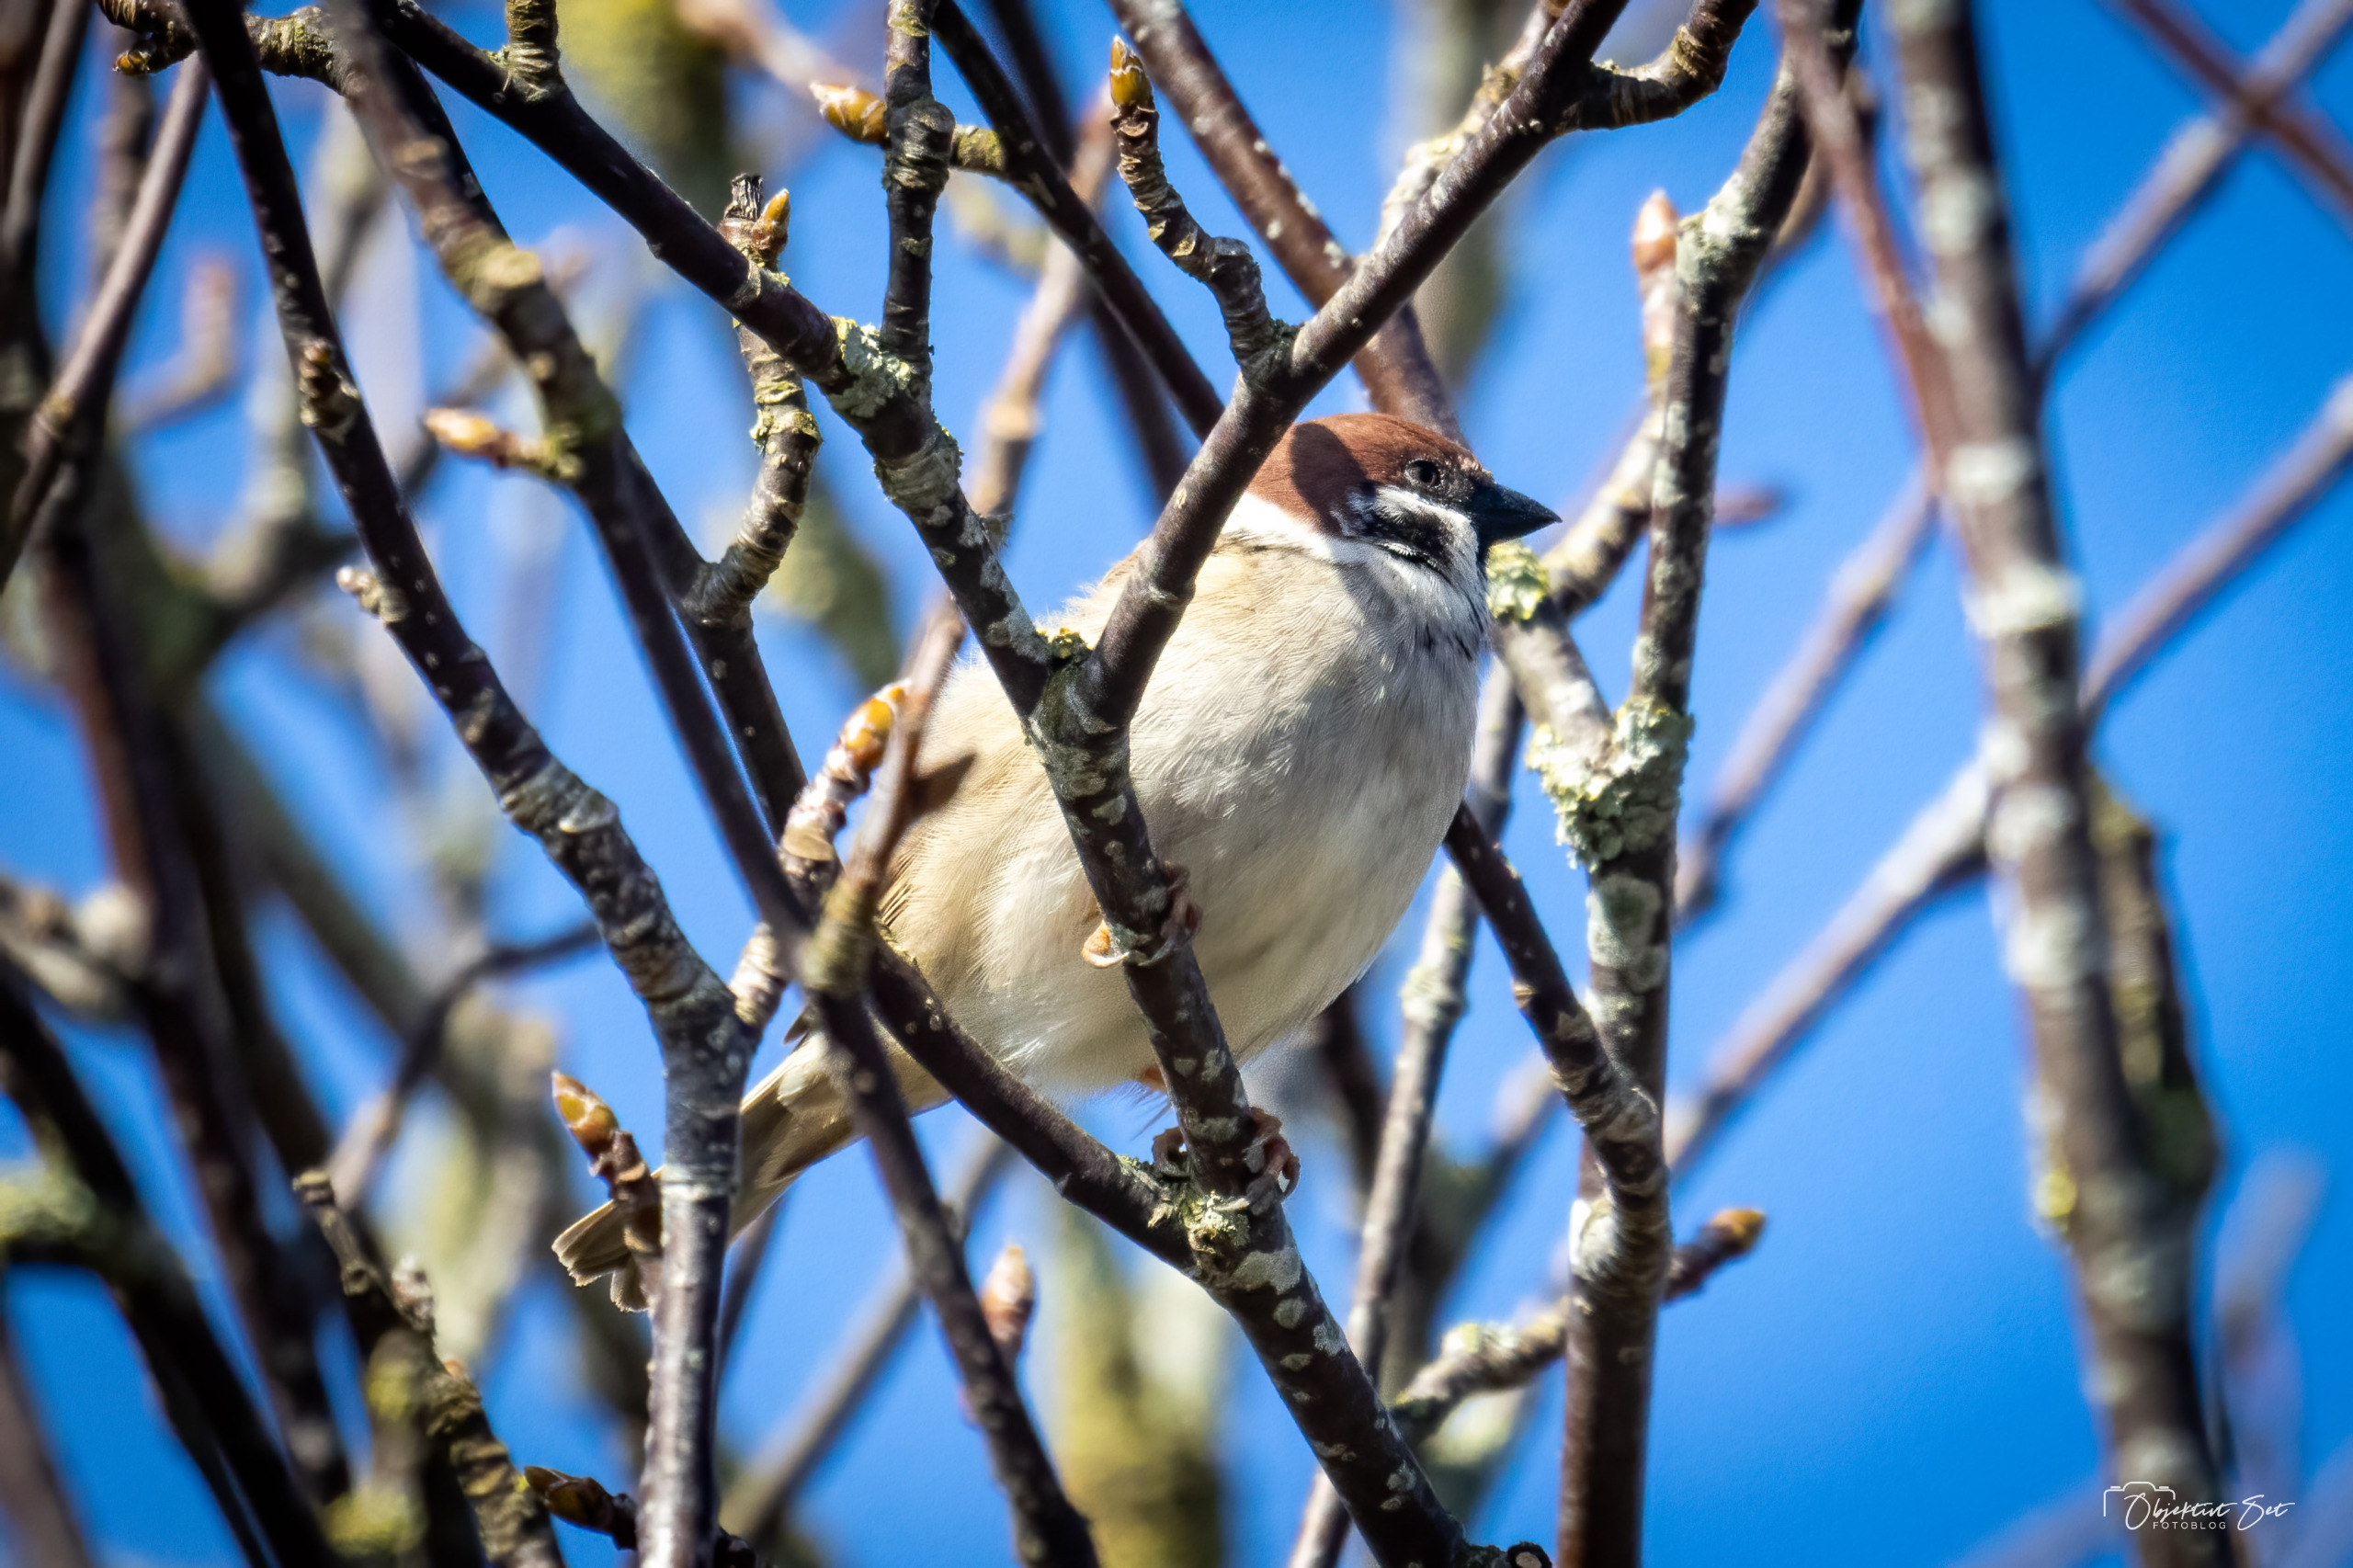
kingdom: Animalia
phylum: Chordata
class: Aves
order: Passeriformes
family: Passeridae
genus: Passer
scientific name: Passer montanus
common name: Skovspurv
